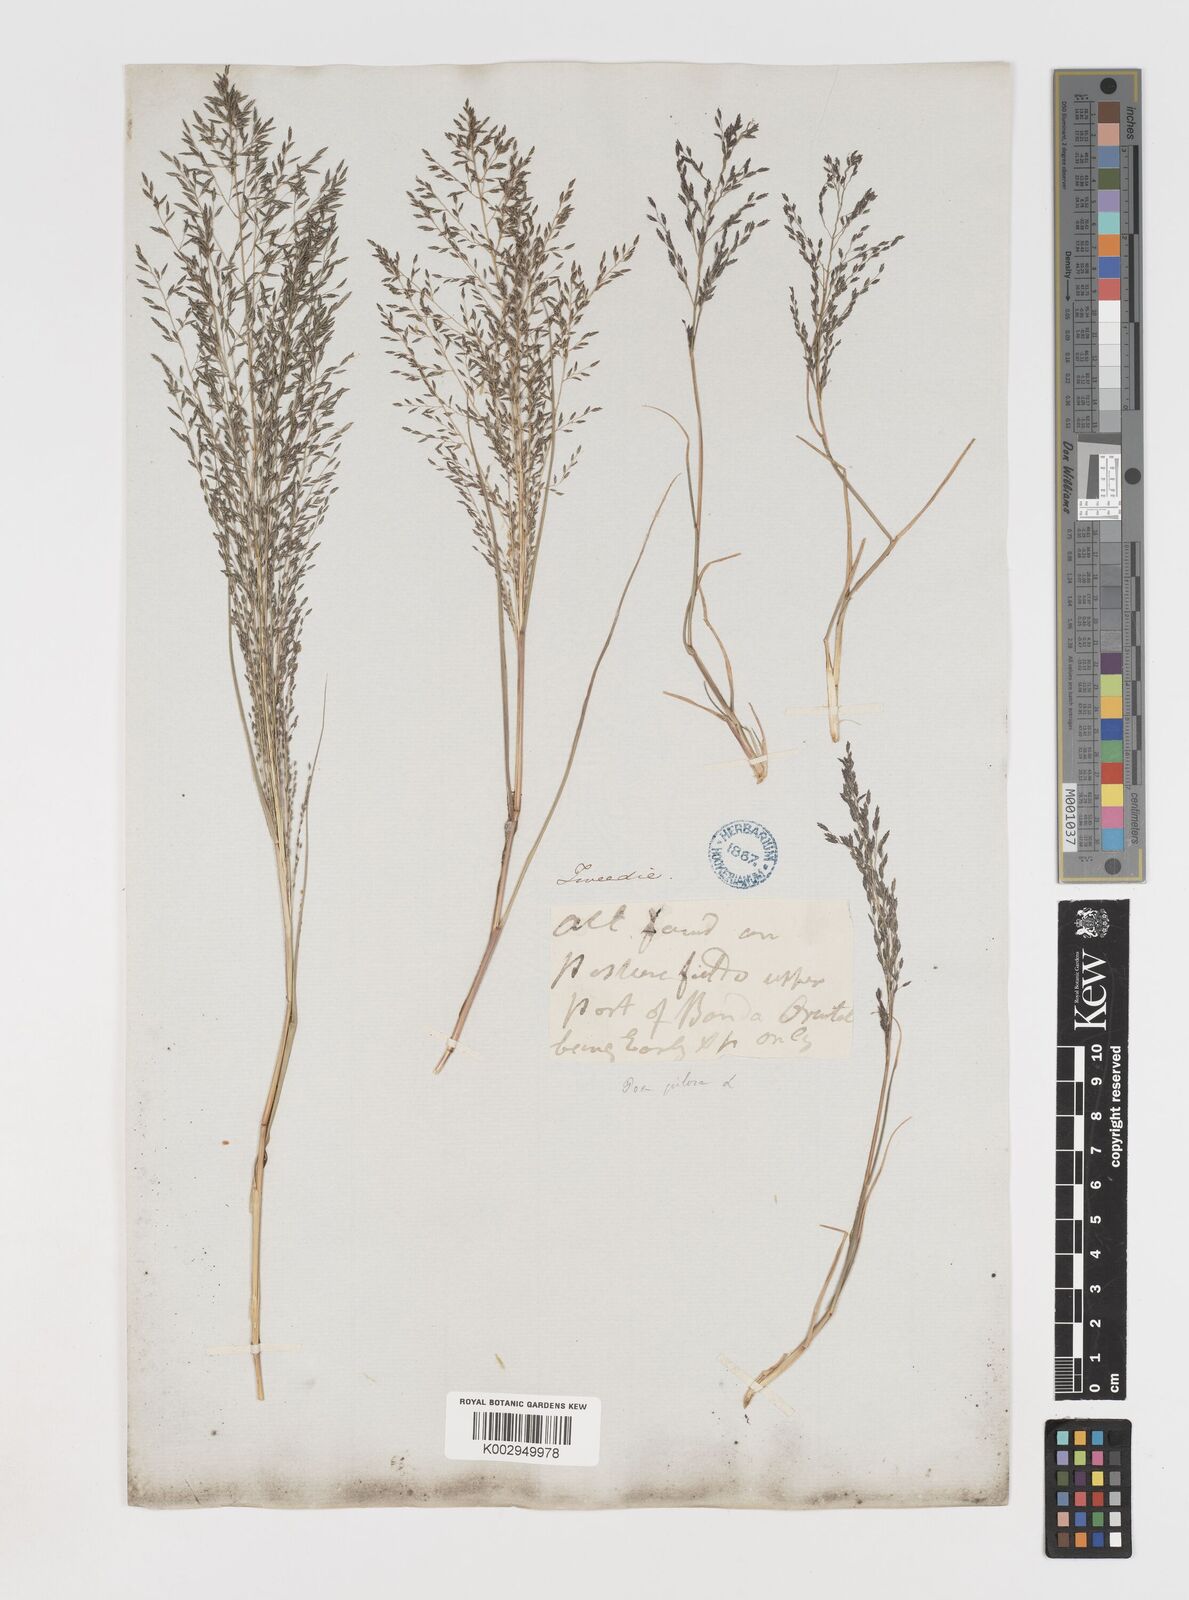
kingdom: Plantae
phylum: Tracheophyta
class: Liliopsida
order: Poales
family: Poaceae
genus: Eragrostis
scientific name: Eragrostis
